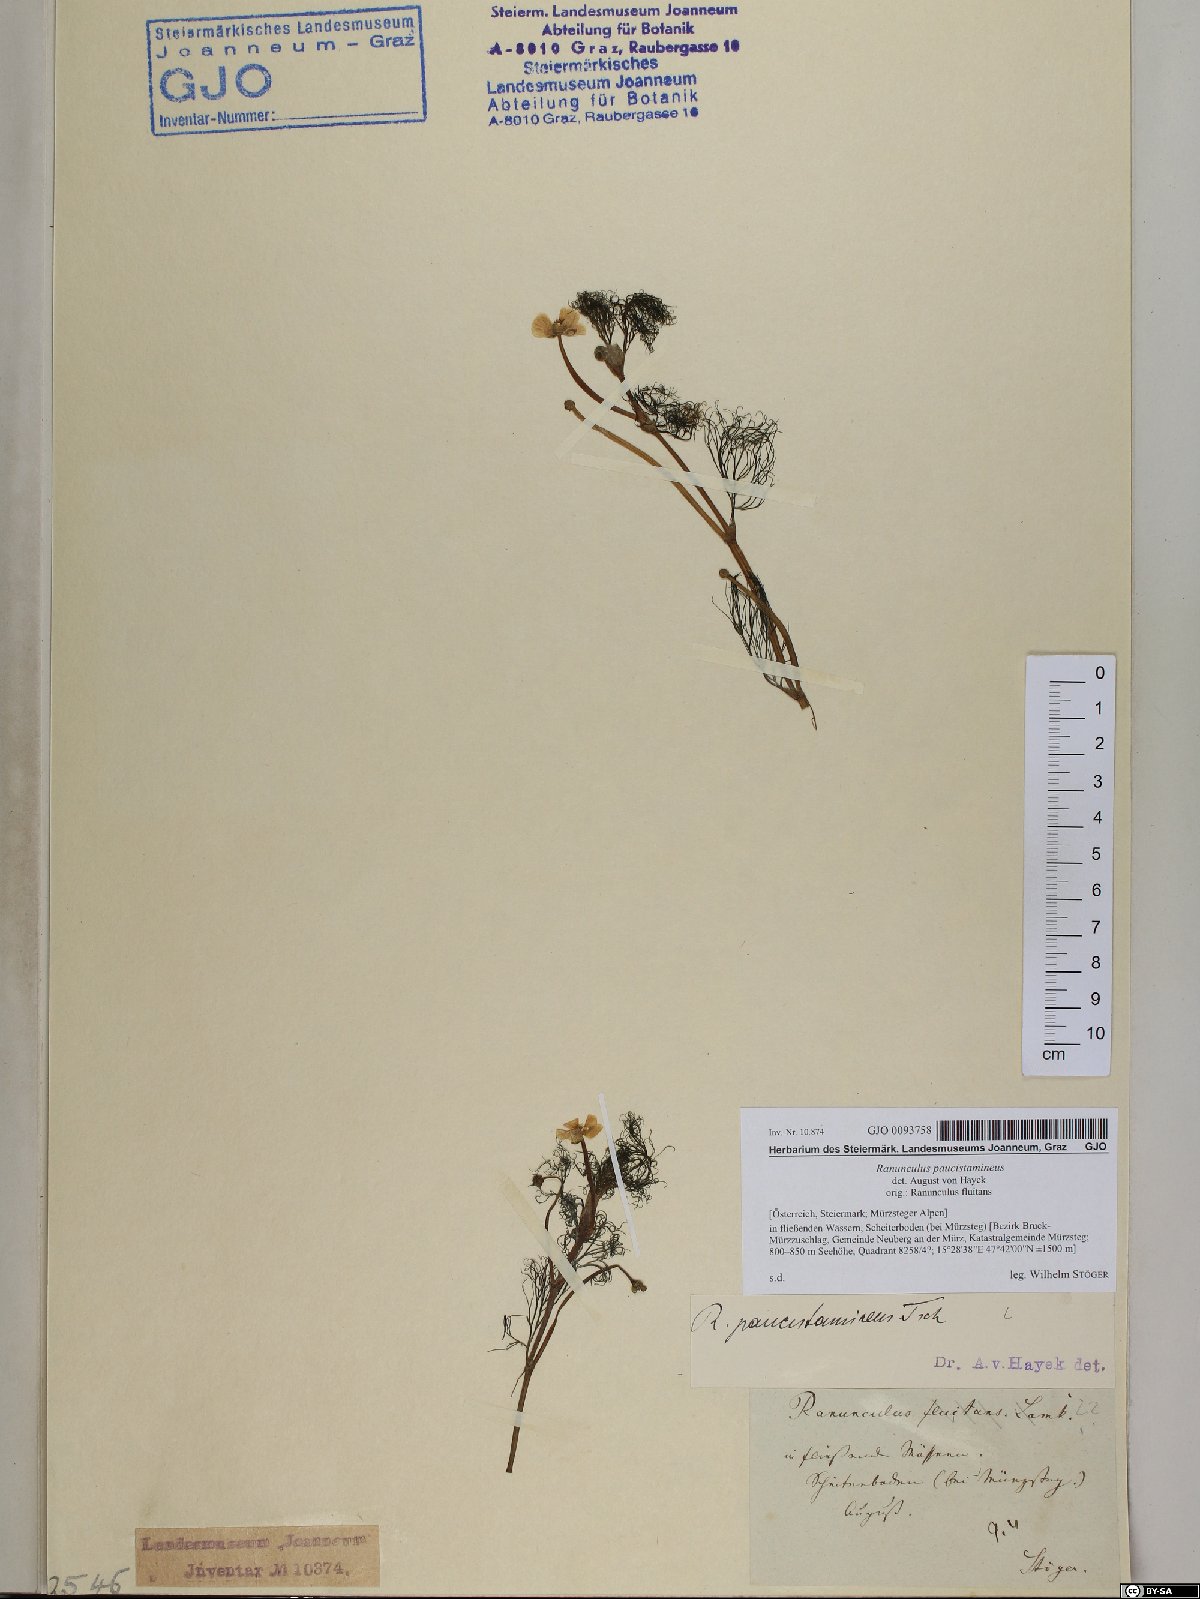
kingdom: Plantae
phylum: Tracheophyta
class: Magnoliopsida
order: Ranunculales
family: Ranunculaceae
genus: Ranunculus
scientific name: Ranunculus
